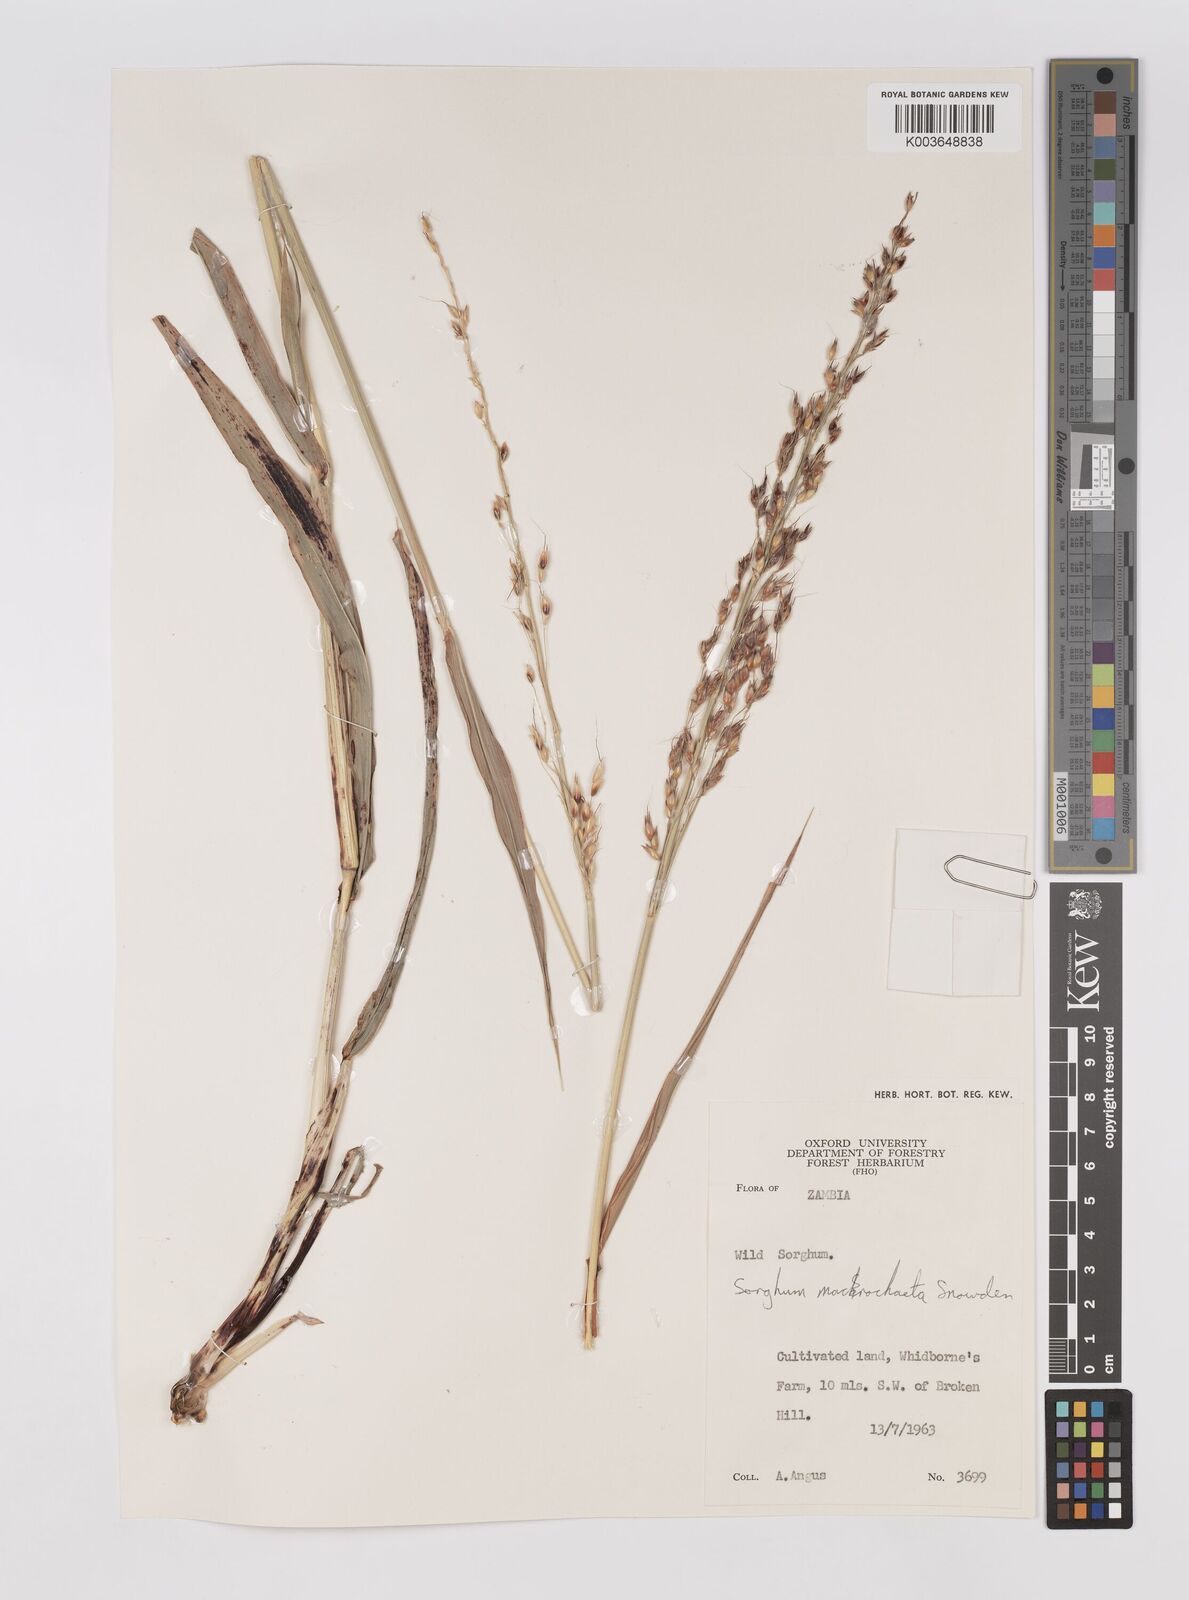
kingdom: Plantae
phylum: Tracheophyta
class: Liliopsida
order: Poales
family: Poaceae
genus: Sorghum
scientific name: Sorghum arundinaceum
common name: Sorghum
